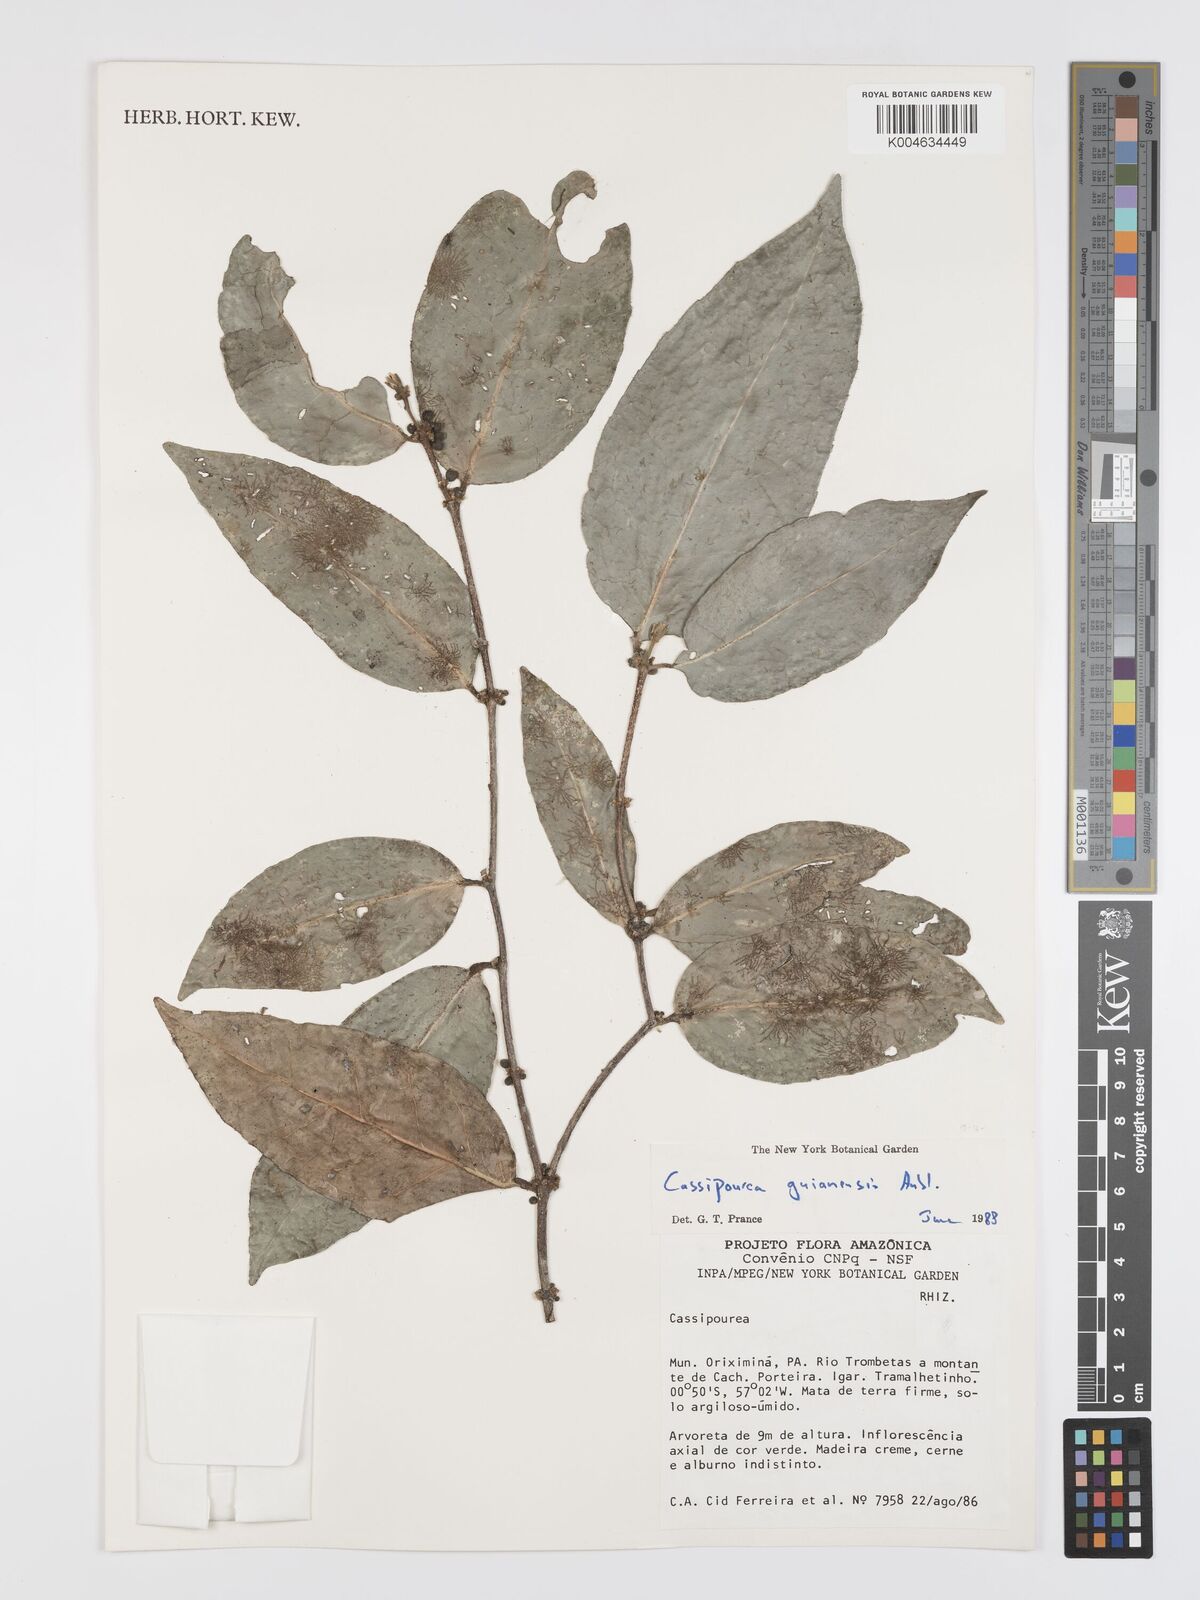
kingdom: Plantae
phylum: Tracheophyta
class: Magnoliopsida
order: Malpighiales
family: Rhizophoraceae
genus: Cassipourea
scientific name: Cassipourea guianensis
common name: Bastard waterwood
